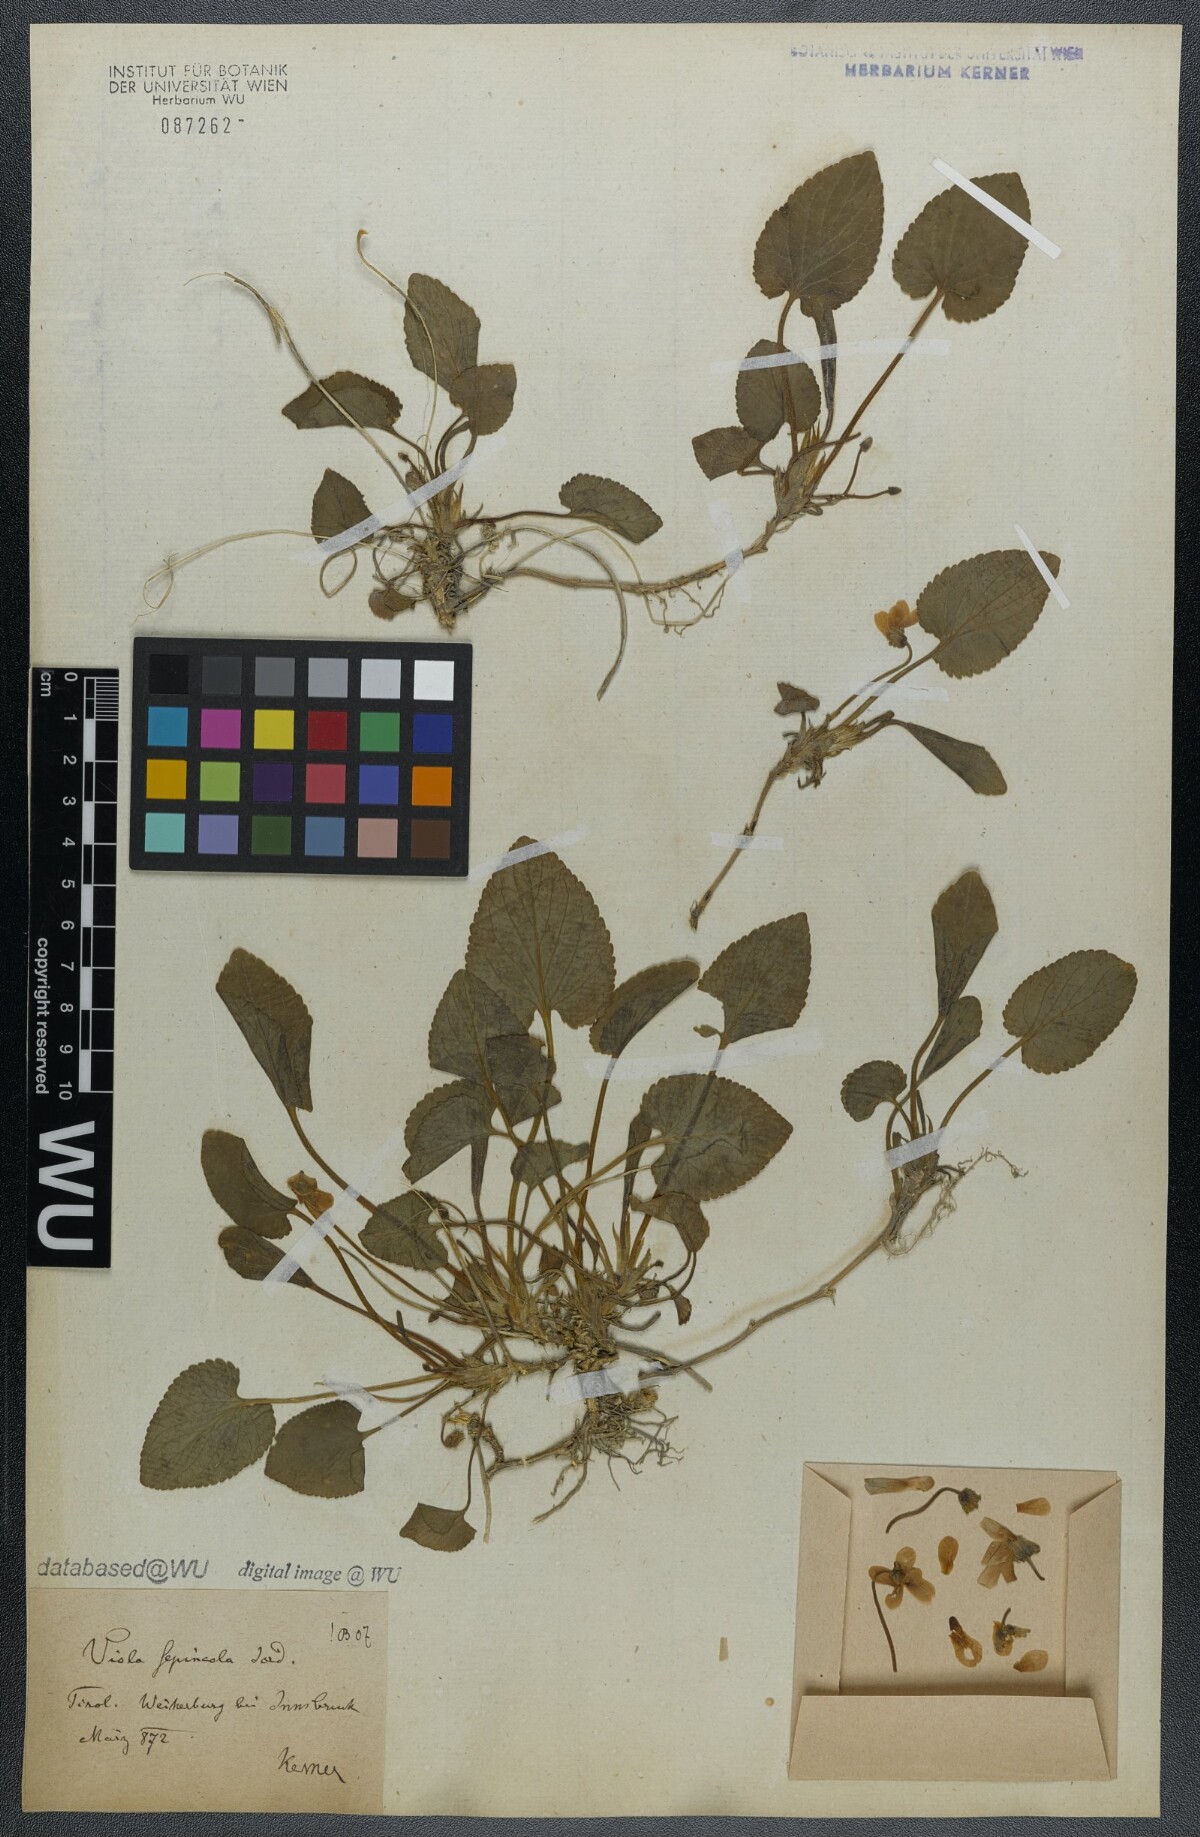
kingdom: Plantae
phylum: Tracheophyta
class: Magnoliopsida
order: Malpighiales
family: Violaceae
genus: Viola
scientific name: Viola suavis
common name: Russian violet
